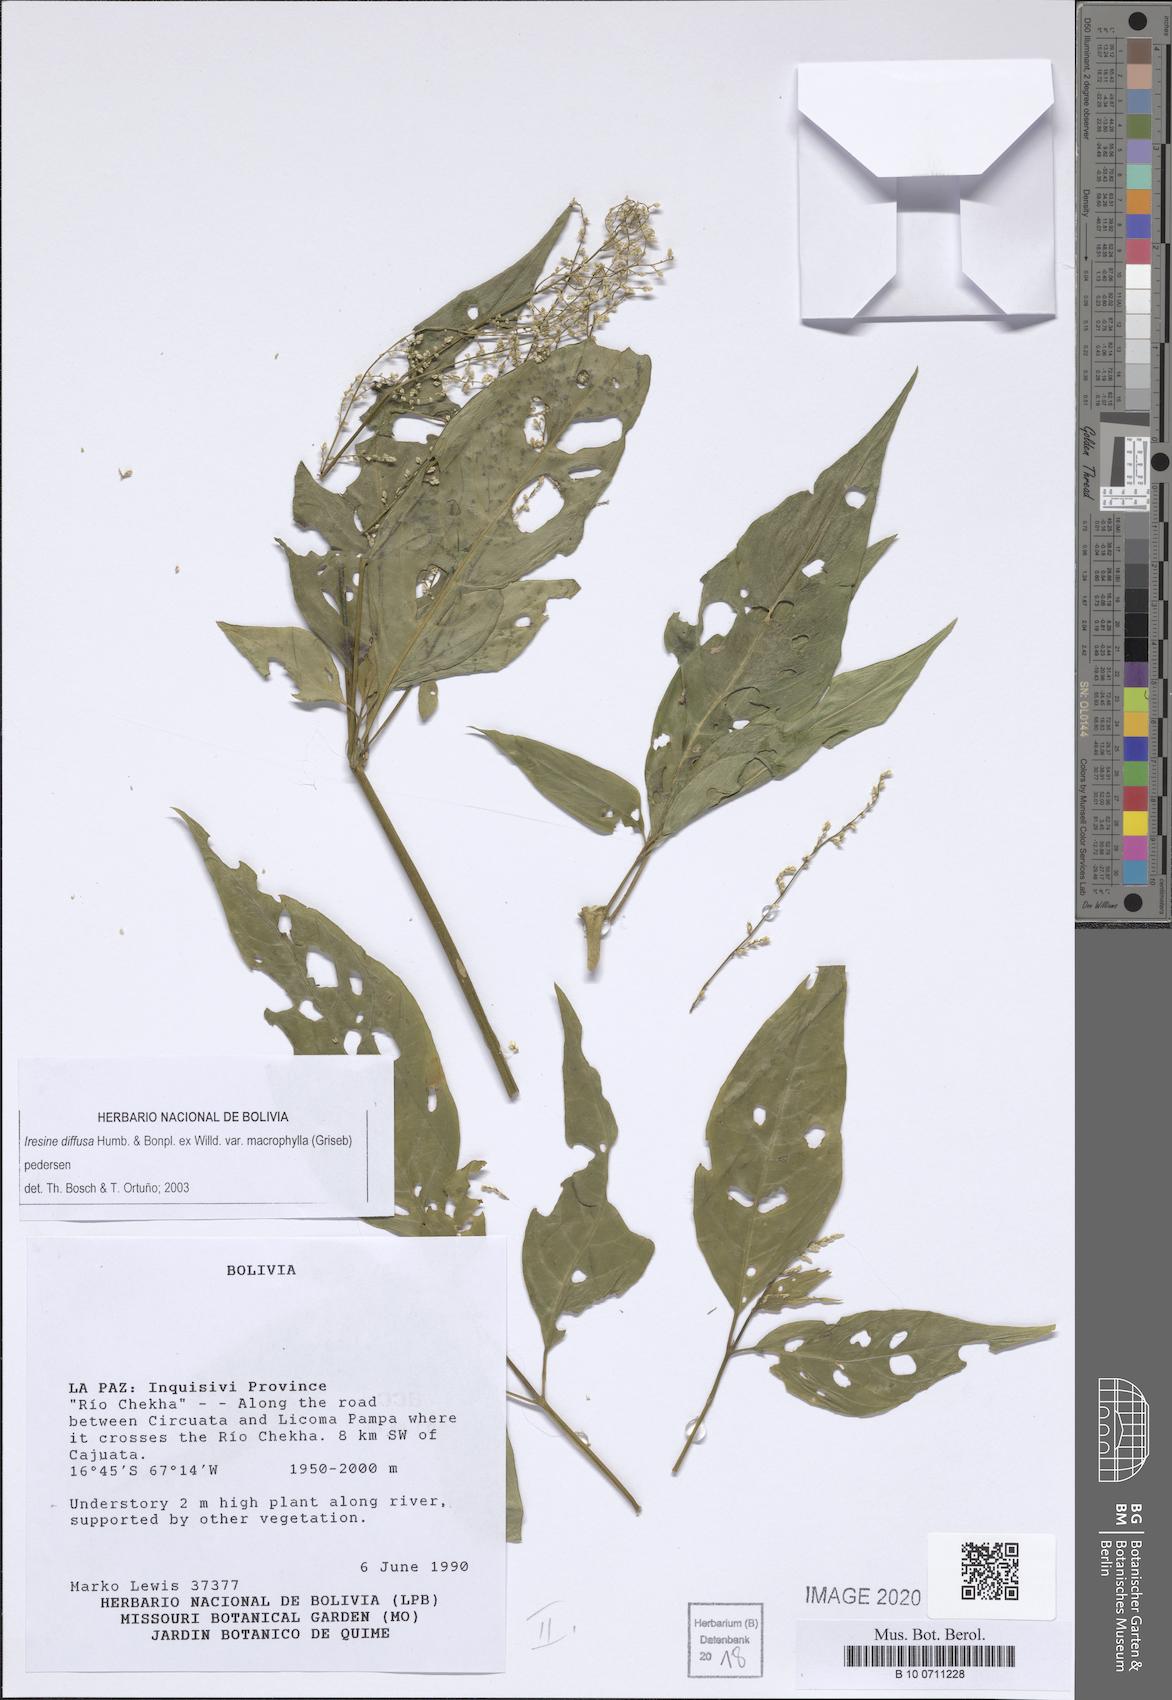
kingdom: Plantae
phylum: Tracheophyta
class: Magnoliopsida
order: Caryophyllales
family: Amaranthaceae
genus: Iresine
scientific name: Iresine diffusa
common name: Juba's-bush
